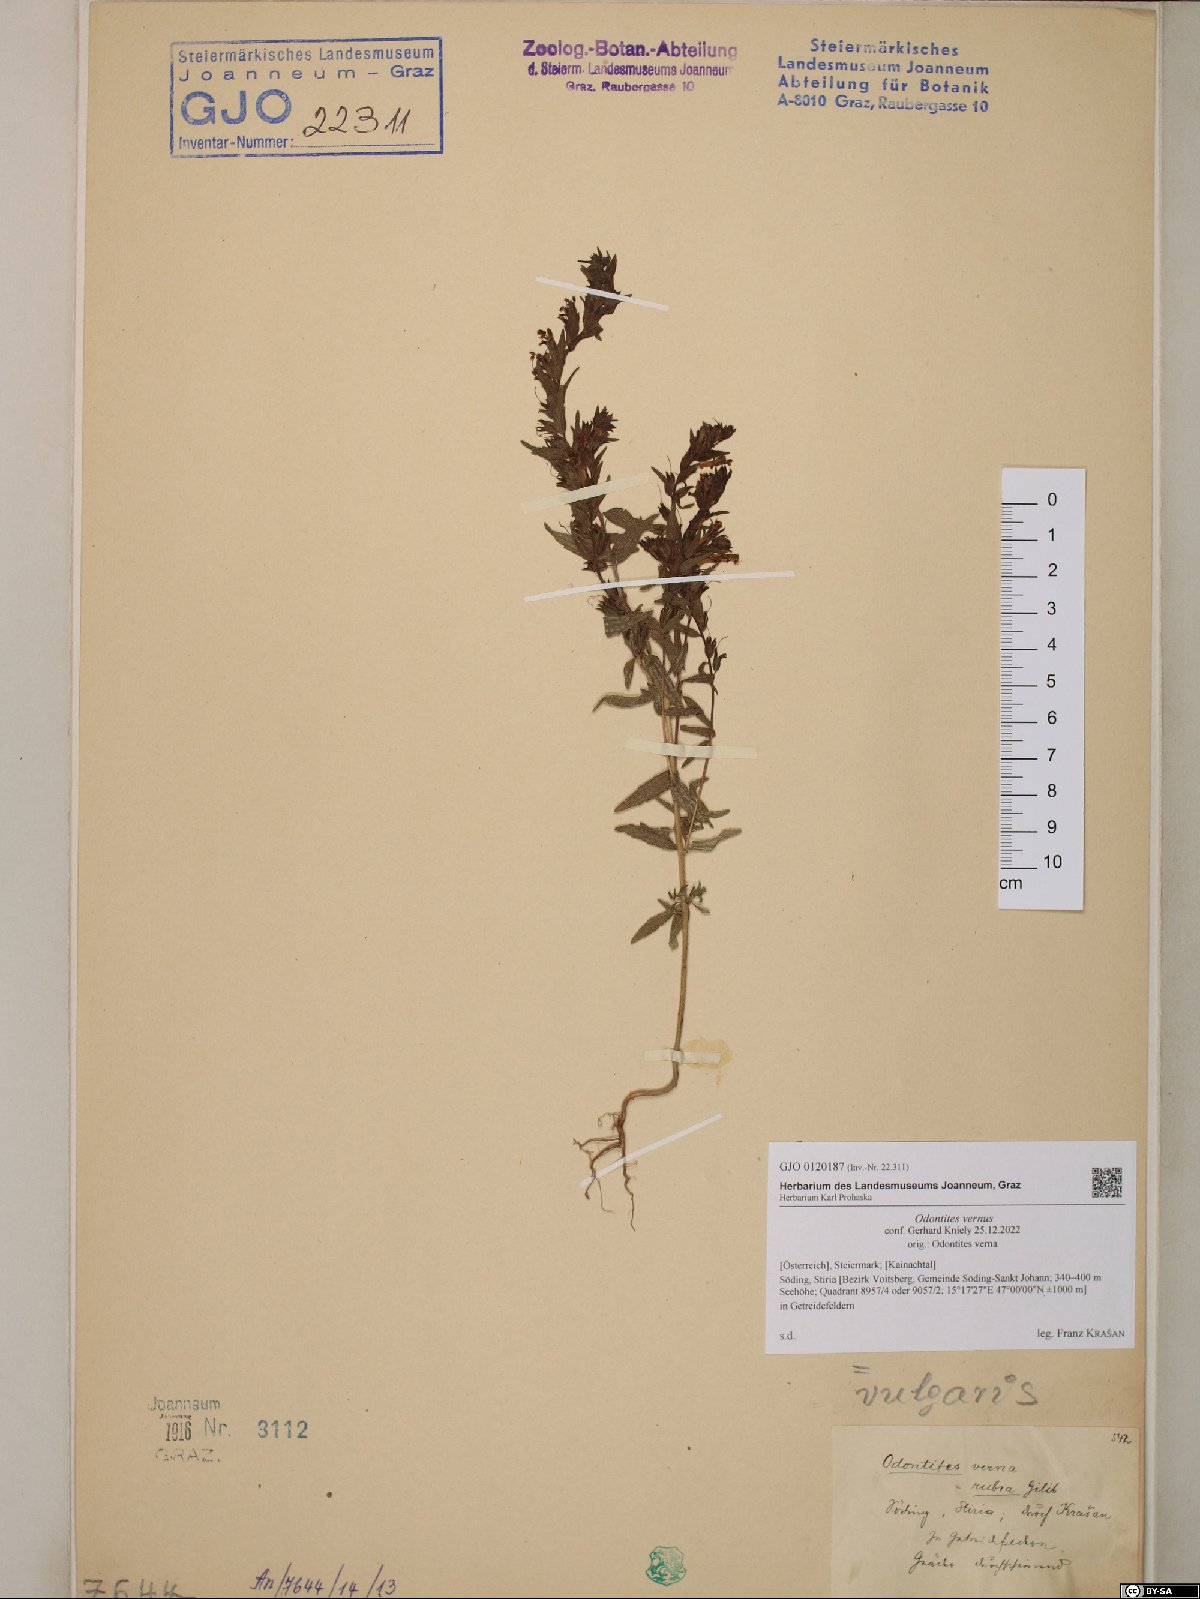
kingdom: Plantae
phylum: Tracheophyta
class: Magnoliopsida
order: Lamiales
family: Orobanchaceae
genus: Odontites
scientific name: Odontites vernus
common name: Red bartsia
